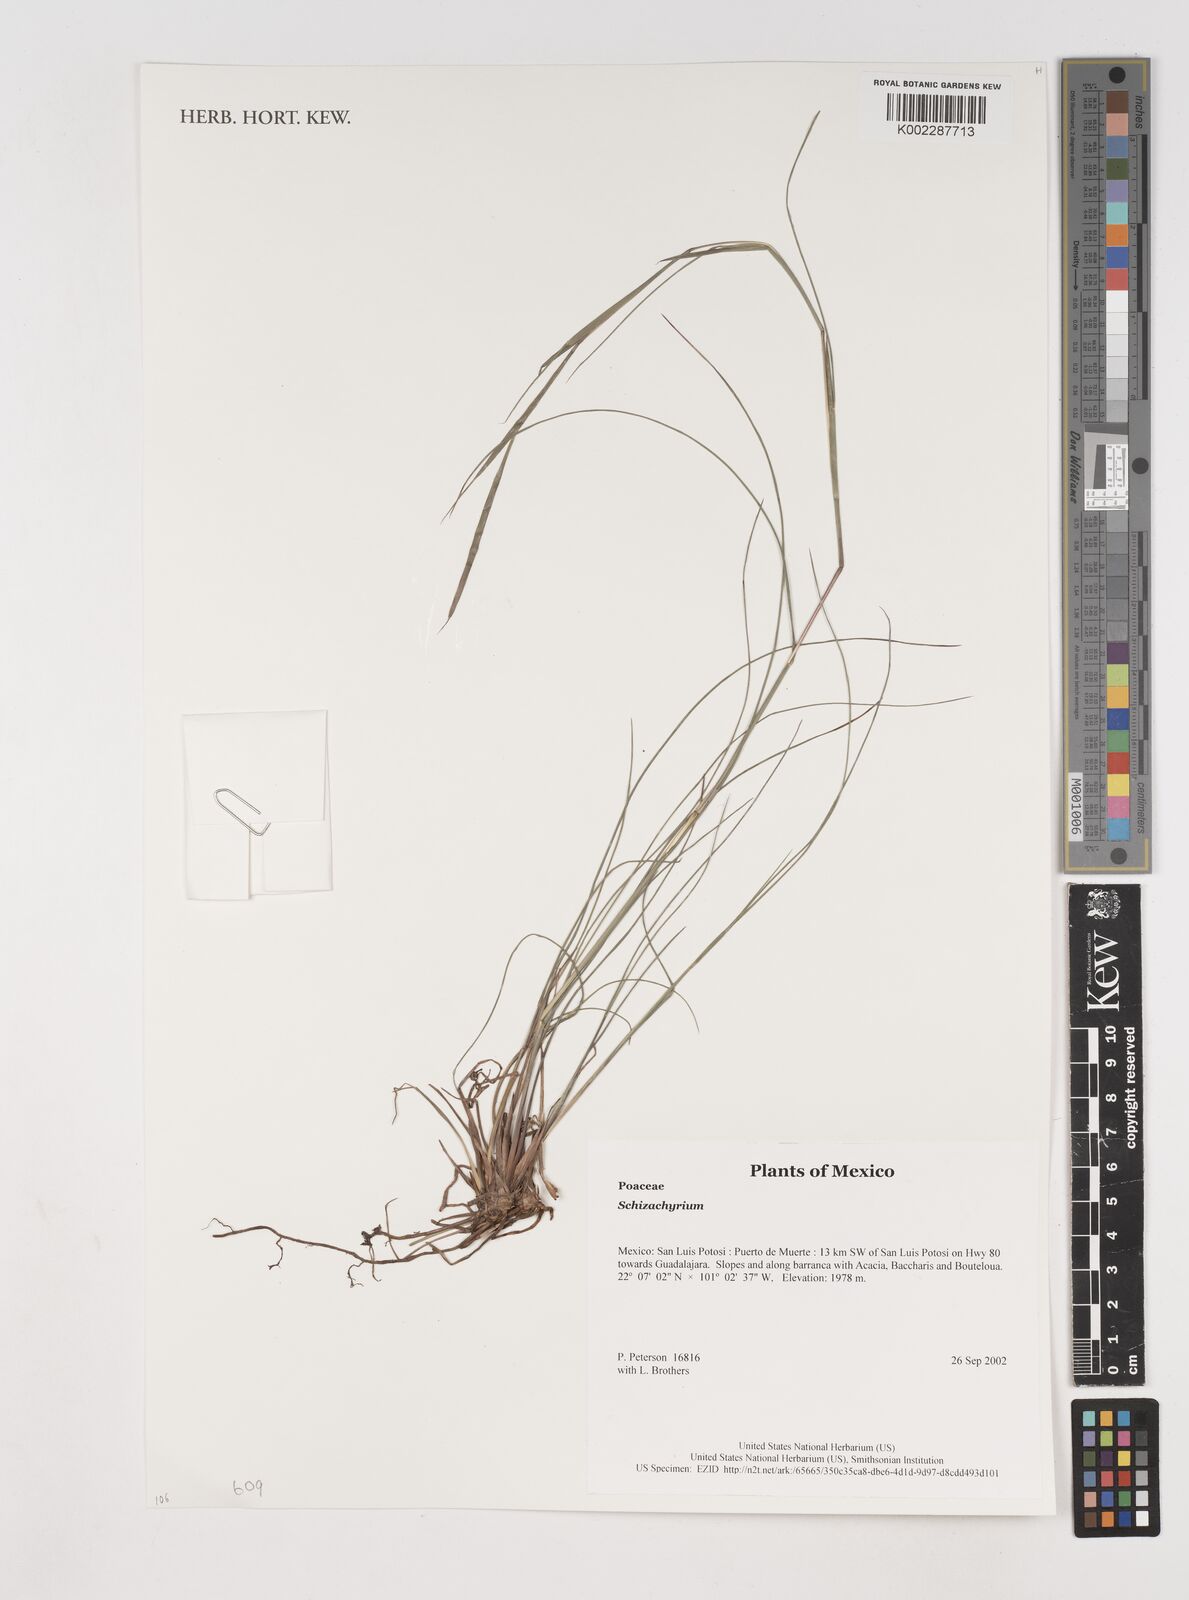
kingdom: Plantae
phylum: Tracheophyta
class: Liliopsida
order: Poales
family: Poaceae
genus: Schizachyrium
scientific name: Schizachyrium
